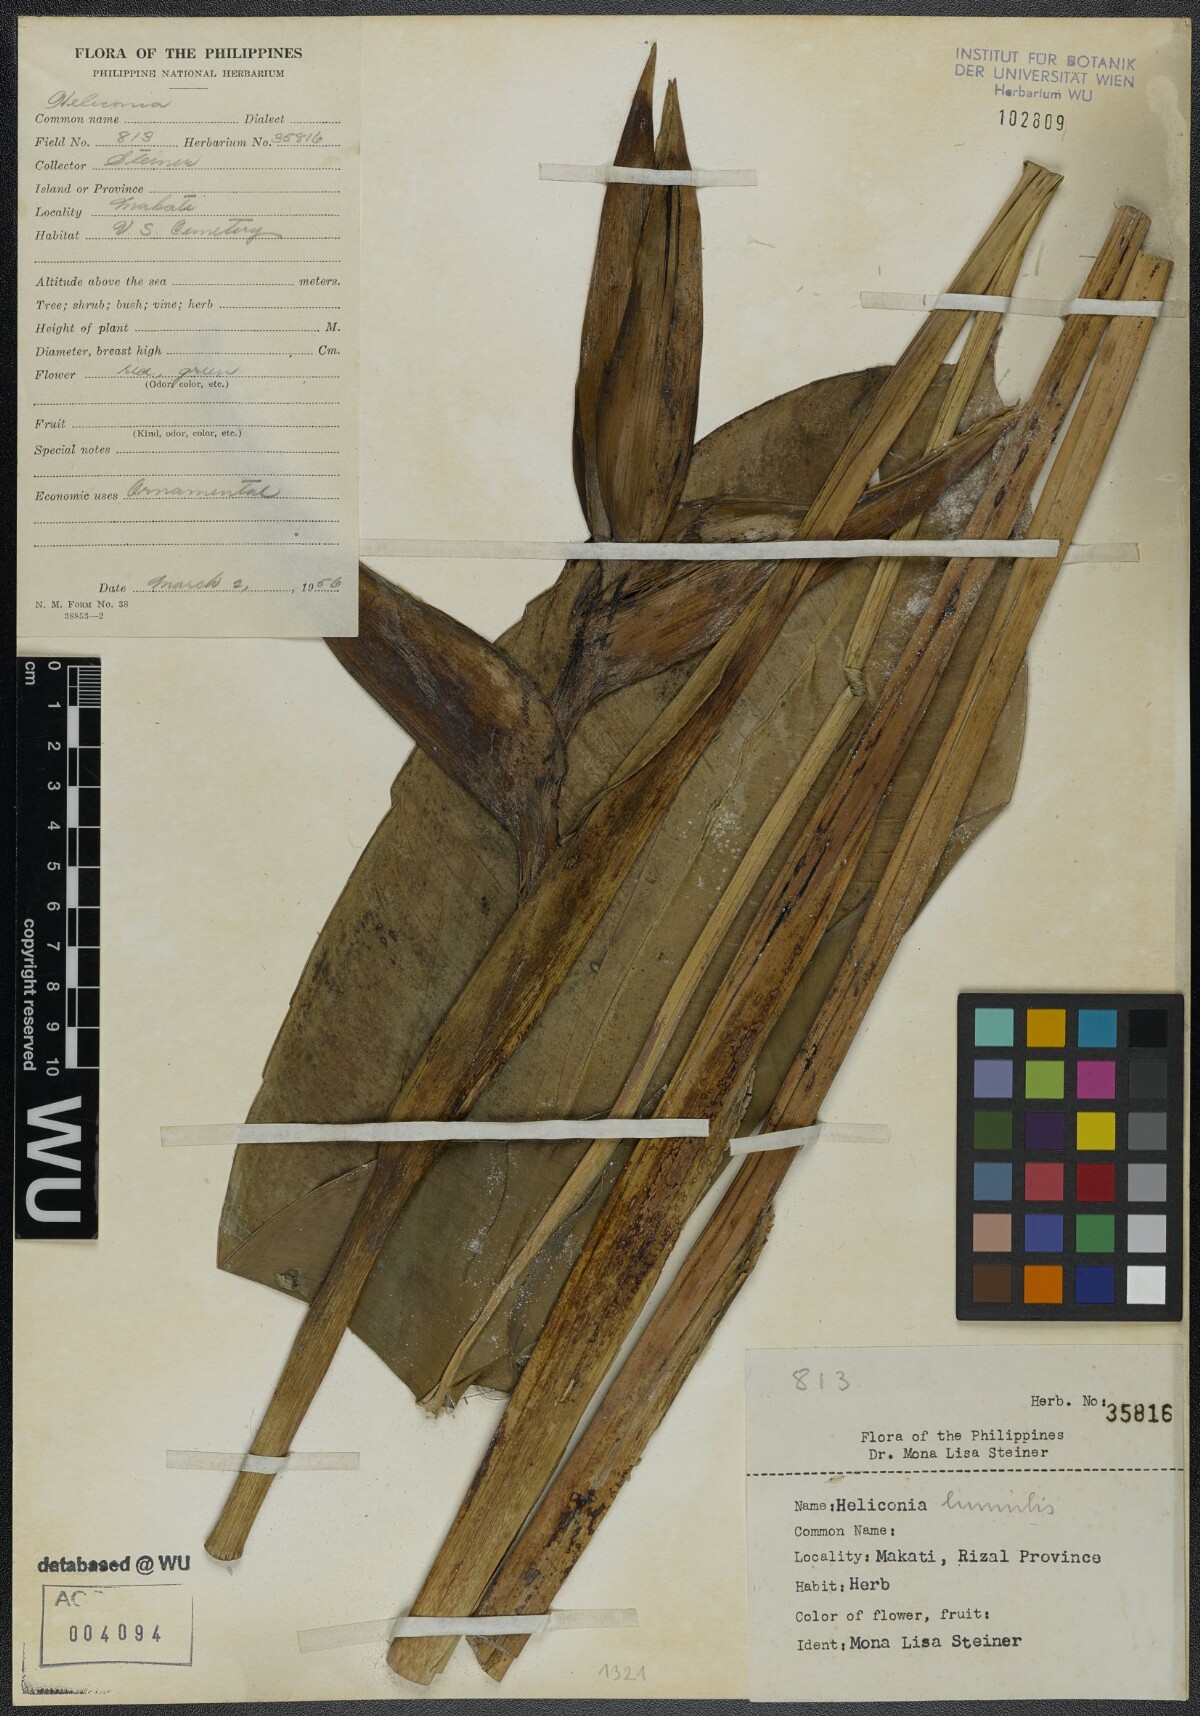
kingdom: Plantae
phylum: Tracheophyta
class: Liliopsida
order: Zingiberales
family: Heliconiaceae
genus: Heliconia
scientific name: Heliconia psittacorum
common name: Parrot's-flower
